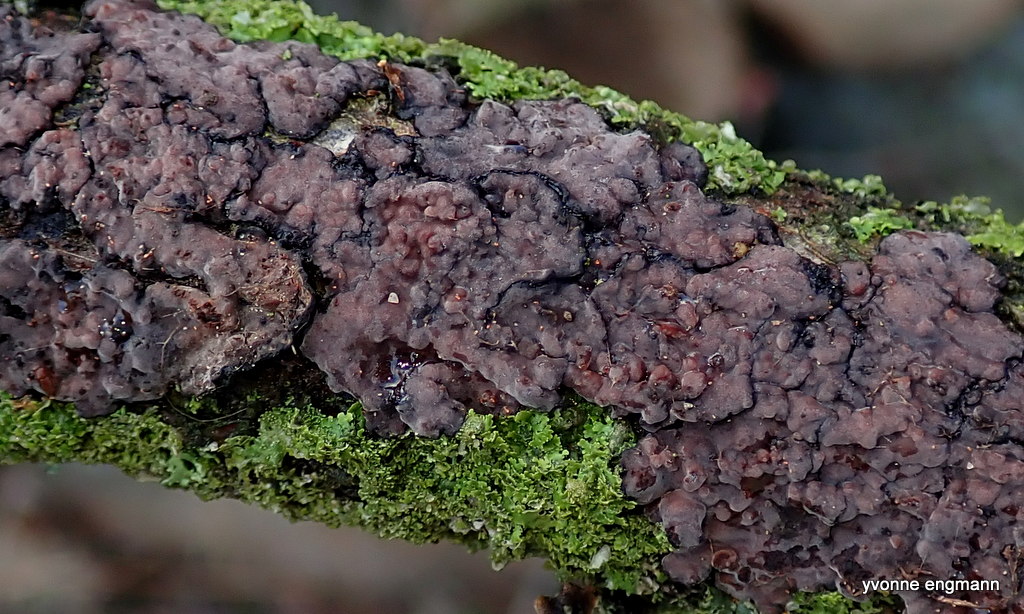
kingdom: Fungi
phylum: Basidiomycota
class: Agaricomycetes
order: Russulales
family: Peniophoraceae
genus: Peniophora
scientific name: Peniophora quercina
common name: ege-voksskind
